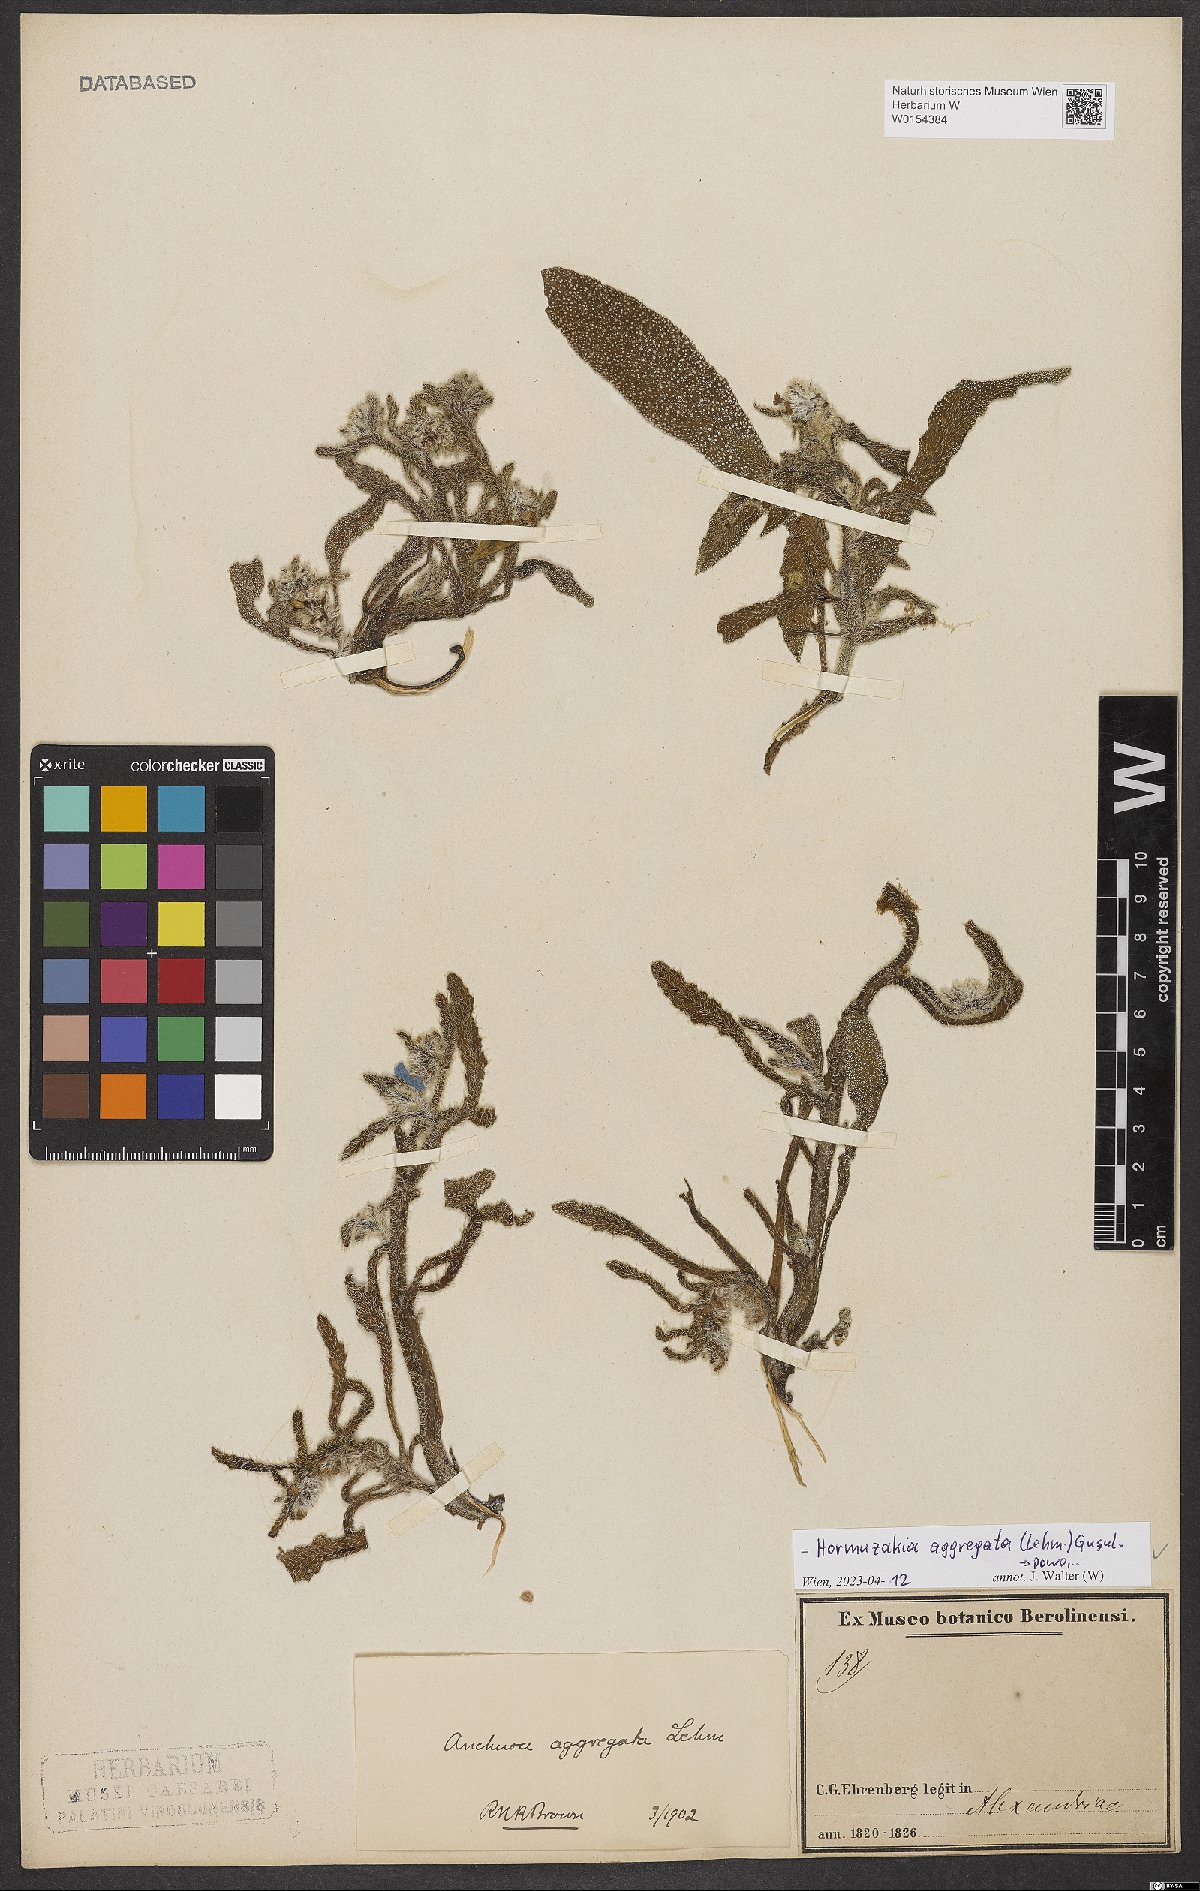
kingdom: Plantae
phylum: Tracheophyta
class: Magnoliopsida
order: Boraginales
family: Boraginaceae
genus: Hormuzakia
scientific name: Hormuzakia aggregata
